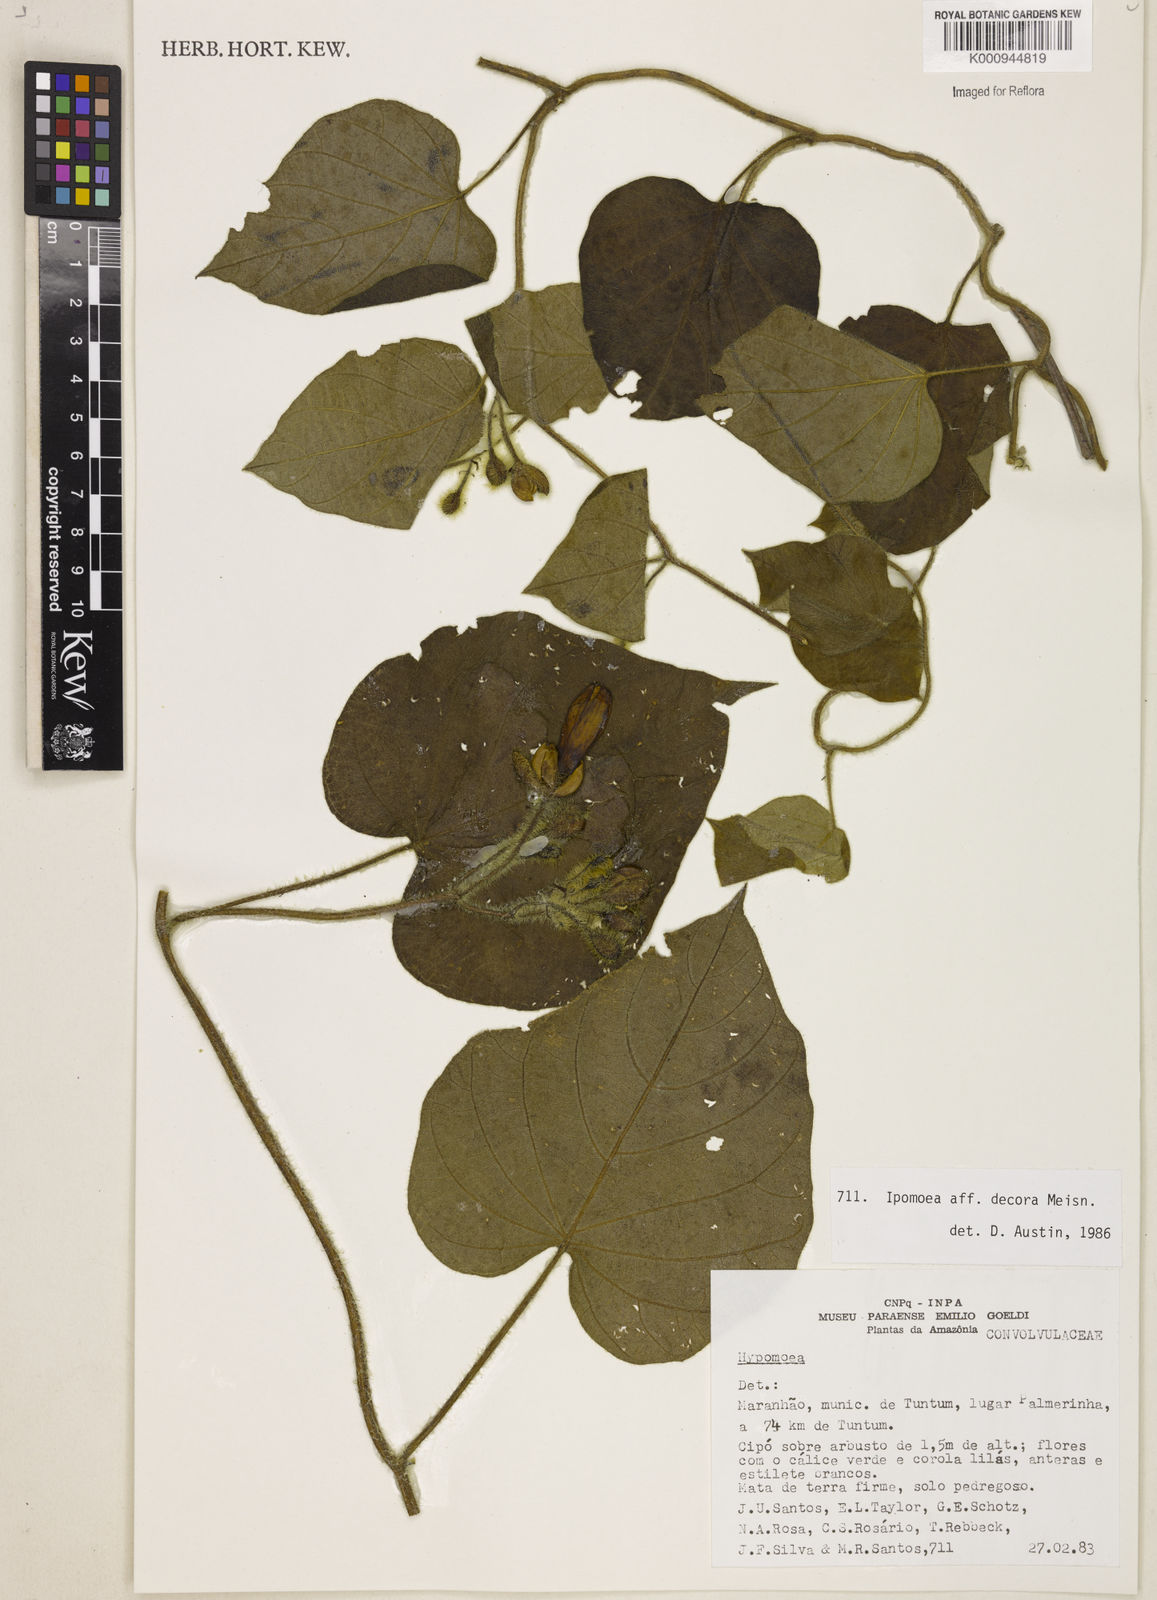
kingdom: Plantae
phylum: Tracheophyta
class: Magnoliopsida
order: Solanales
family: Convolvulaceae
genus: Ipomoea
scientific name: Ipomoea pogonocalyx
